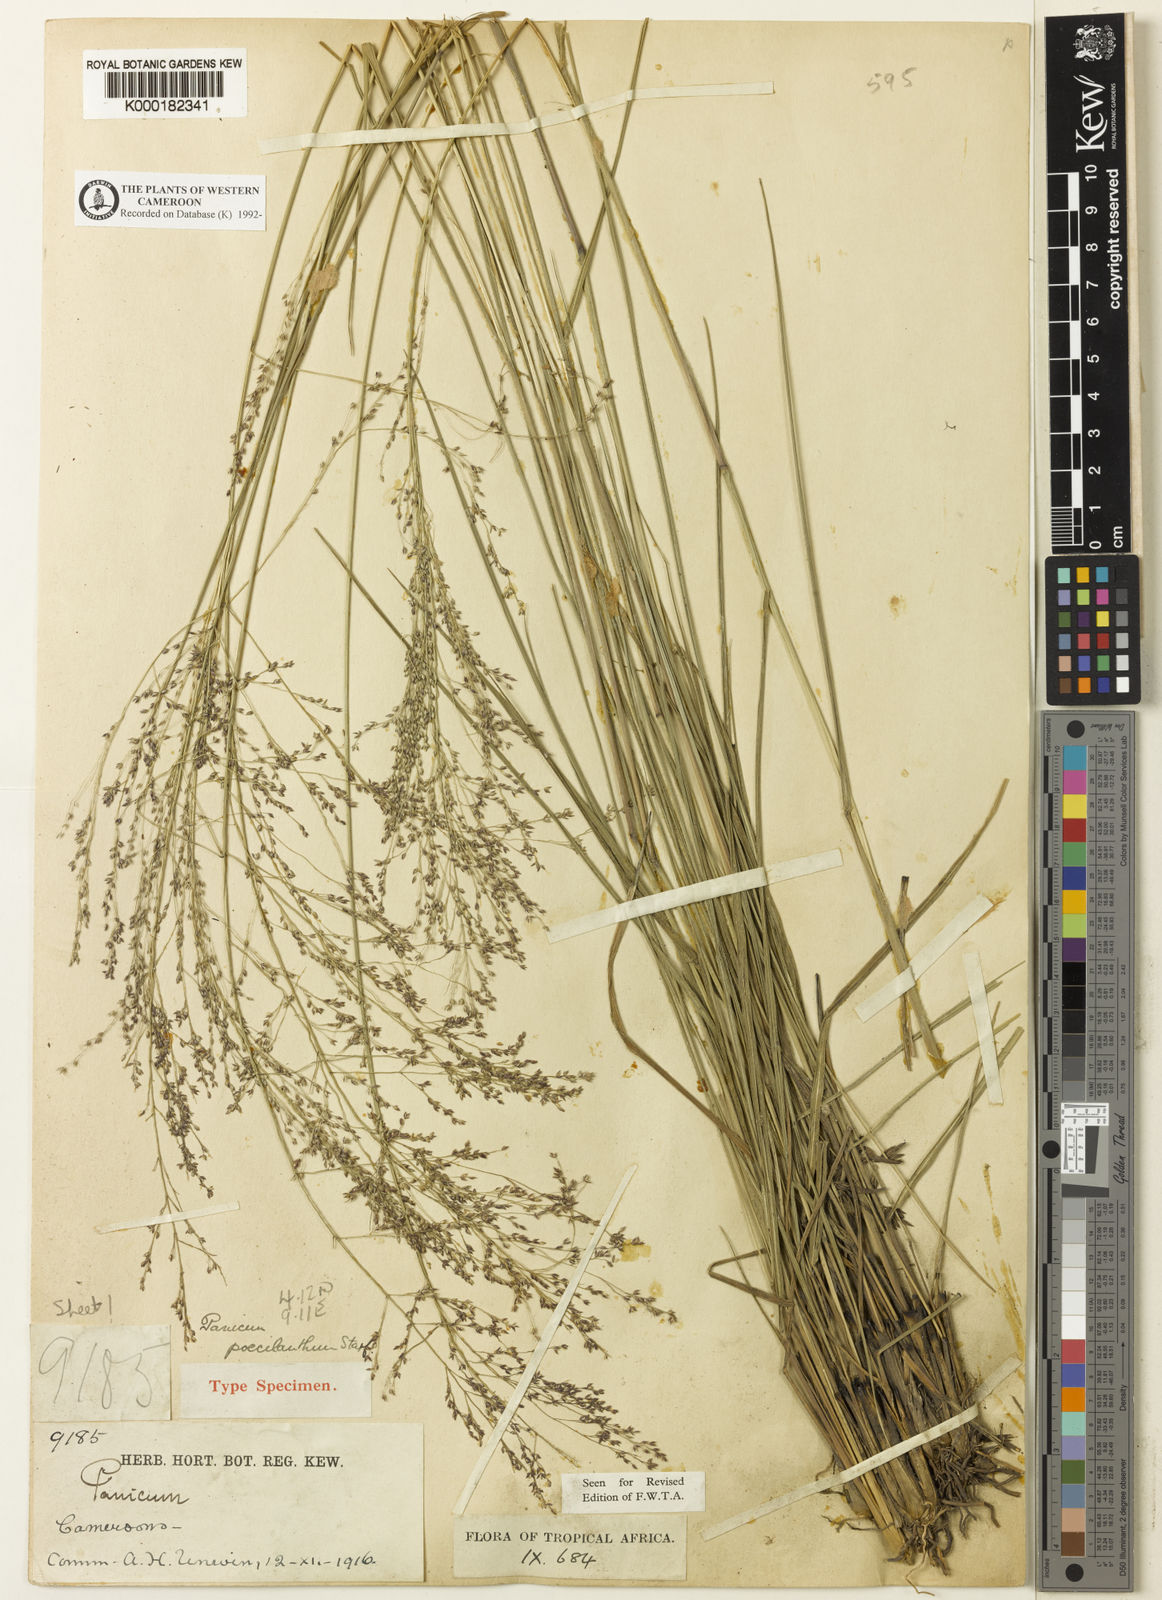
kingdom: Plantae
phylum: Tracheophyta
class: Liliopsida
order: Poales
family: Poaceae
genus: Panicum
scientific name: Panicum dregeanum
